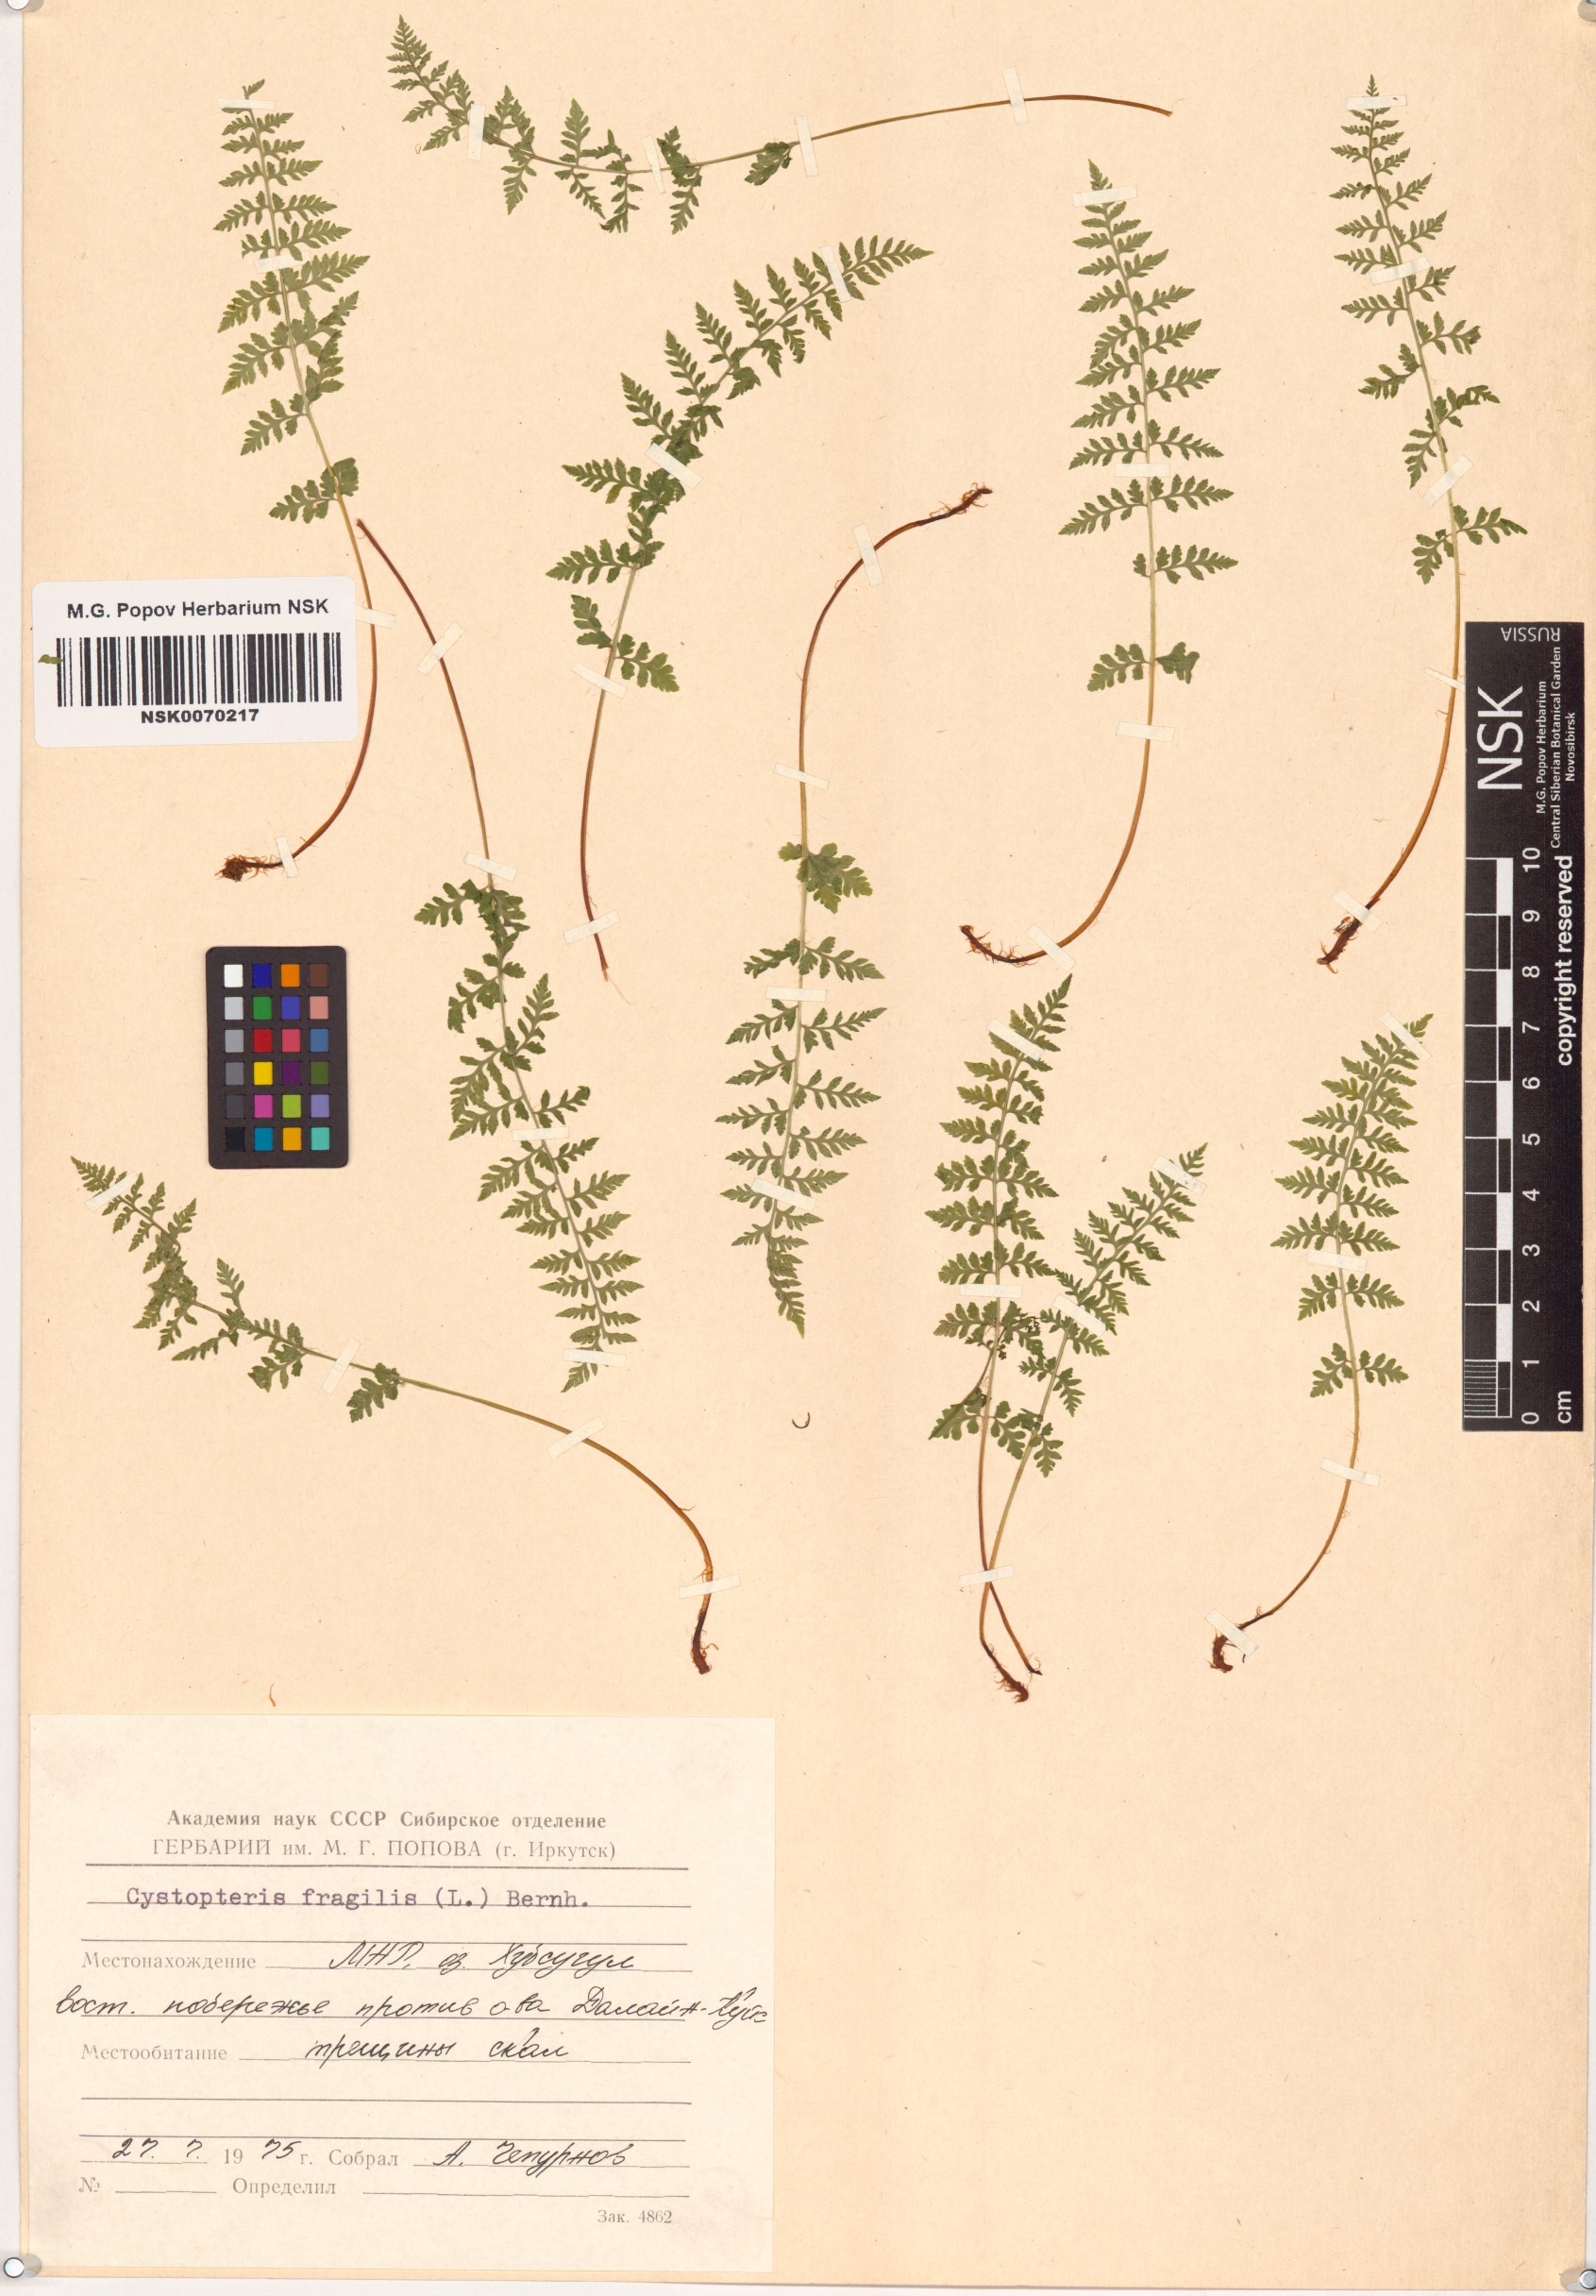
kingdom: Plantae
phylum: Tracheophyta
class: Polypodiopsida
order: Polypodiales
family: Cystopteridaceae
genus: Cystopteris
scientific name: Cystopteris fragilis
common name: Brittle bladder fern
